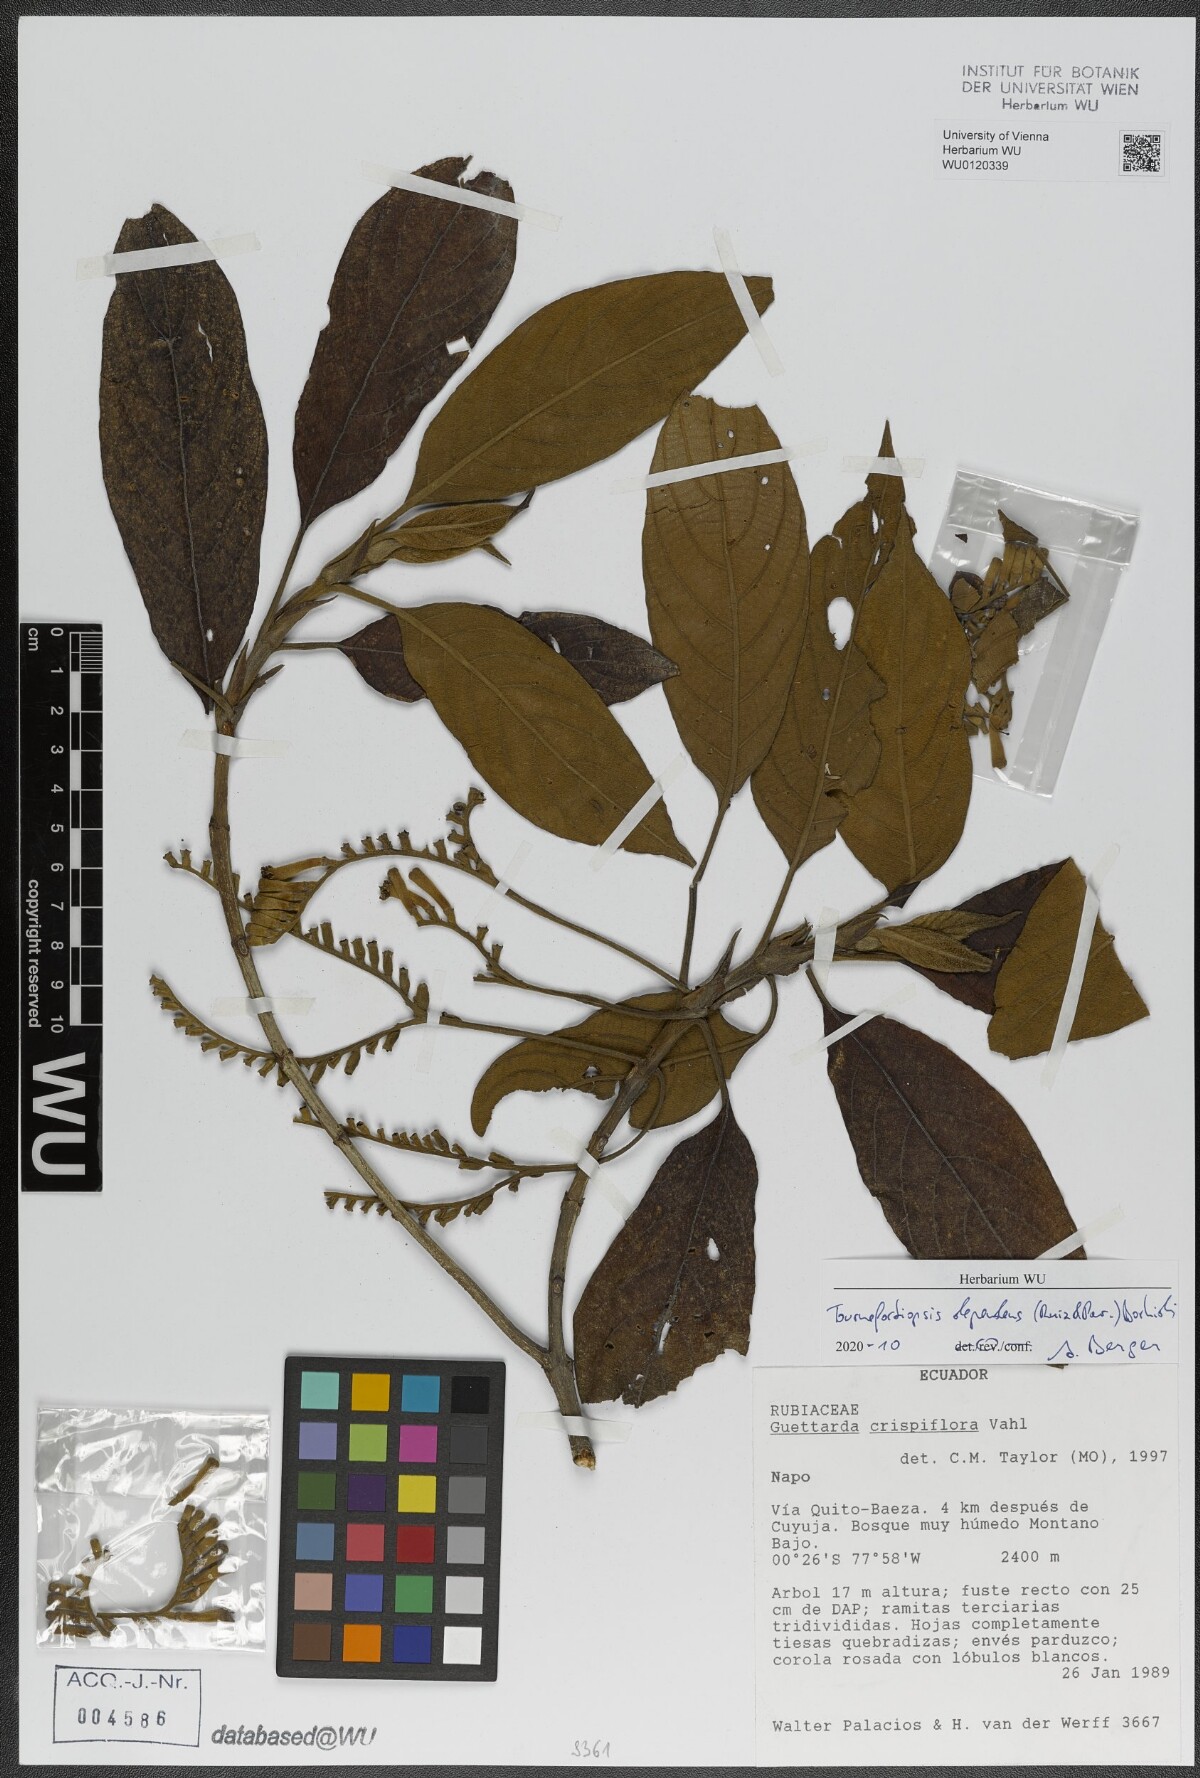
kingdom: Plantae
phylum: Tracheophyta
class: Magnoliopsida
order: Gentianales
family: Rubiaceae
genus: Tournefortiopsis
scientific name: Tournefortiopsis dependens
